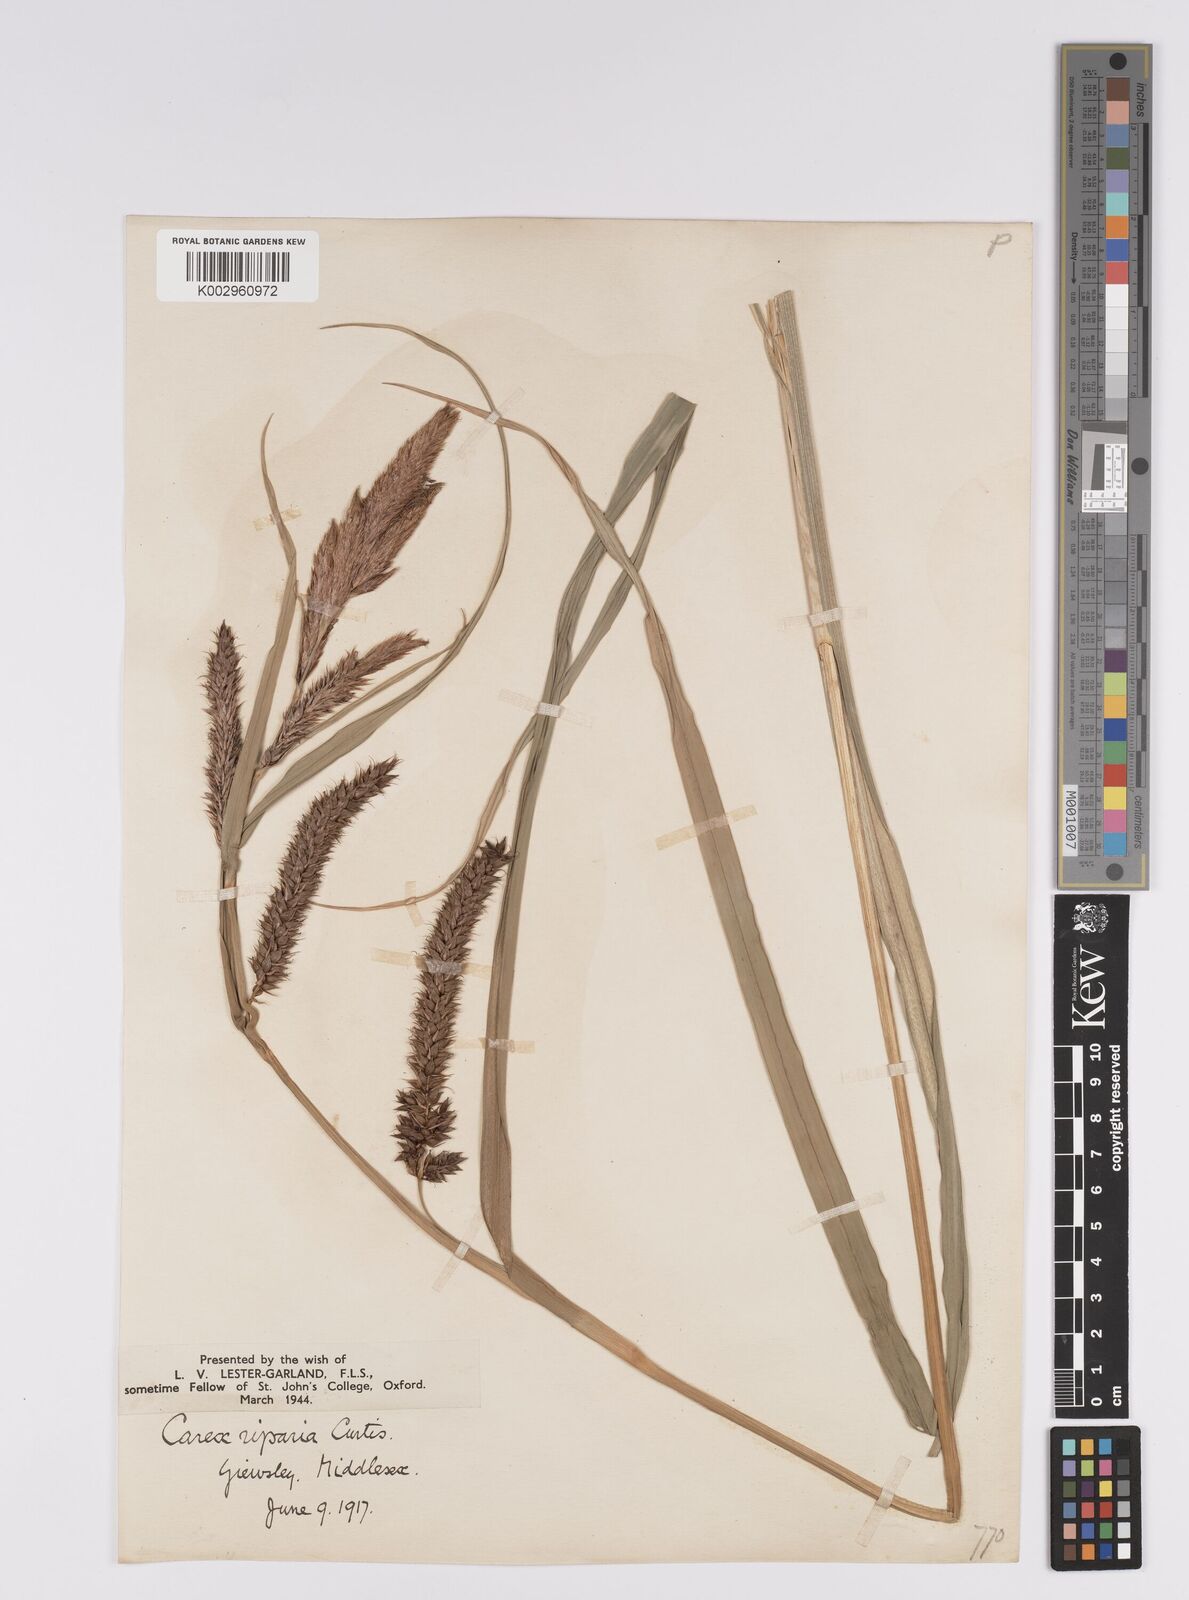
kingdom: Plantae
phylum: Tracheophyta
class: Liliopsida
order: Poales
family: Cyperaceae
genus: Carex
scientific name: Carex riparia
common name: Greater pond-sedge
